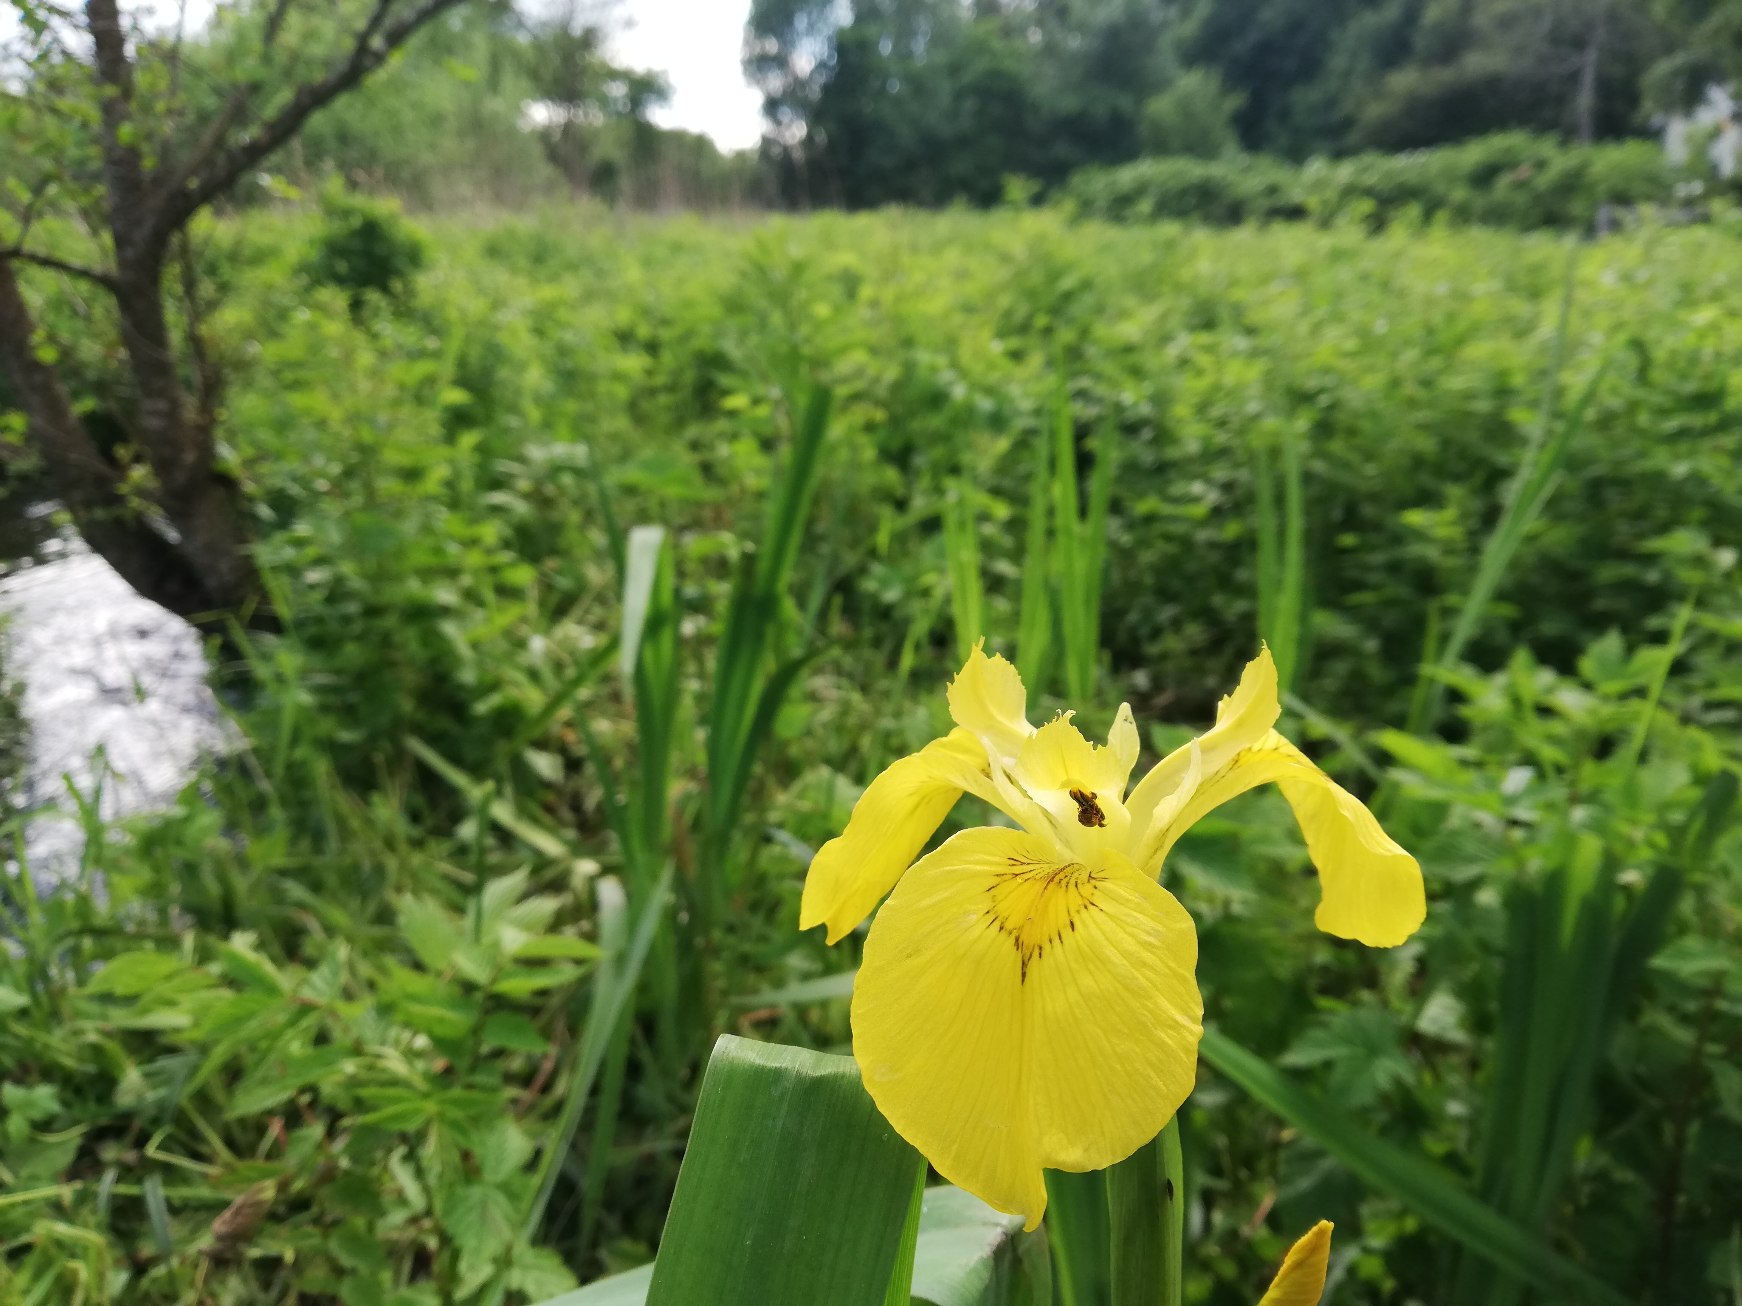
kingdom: Plantae
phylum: Tracheophyta
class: Liliopsida
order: Asparagales
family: Iridaceae
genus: Iris
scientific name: Iris pseudacorus
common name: Gul iris
